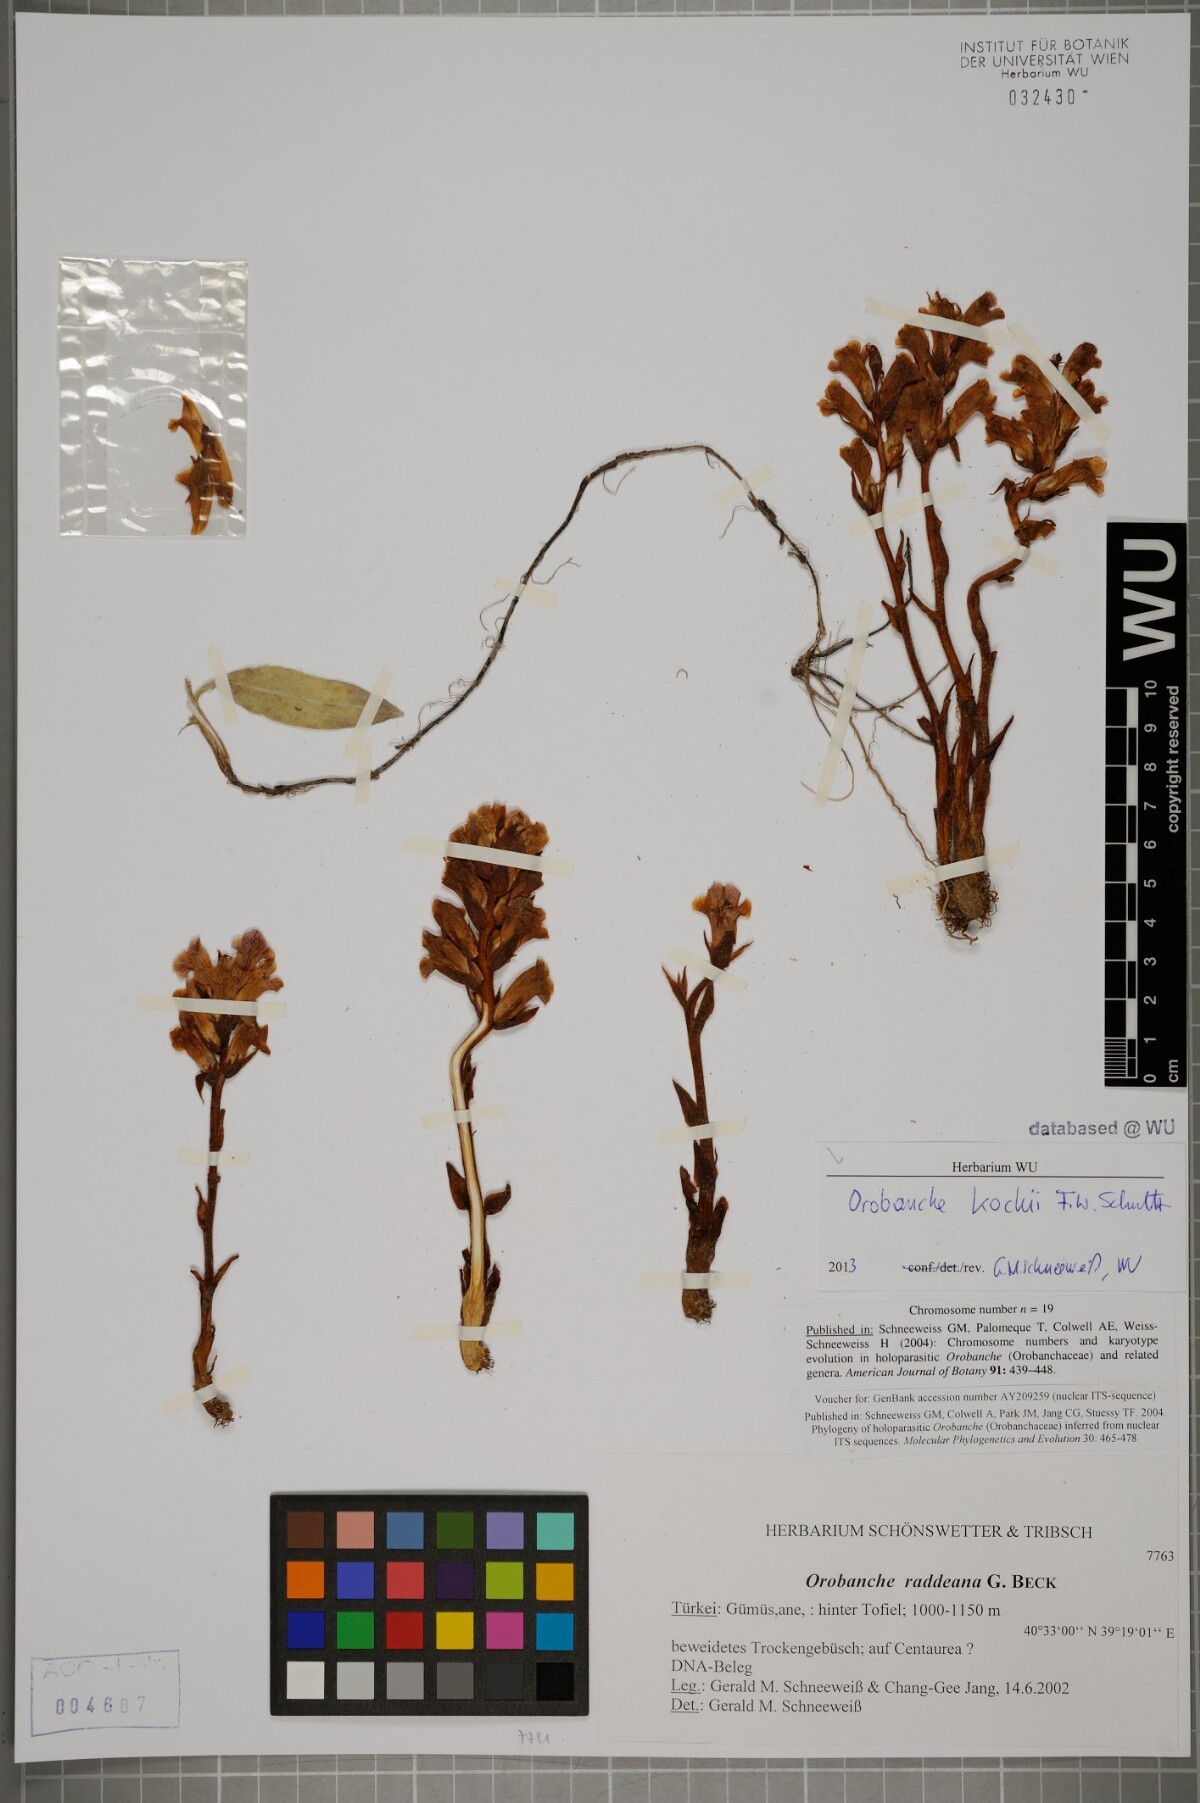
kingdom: Plantae
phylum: Tracheophyta
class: Magnoliopsida
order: Lamiales
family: Orobanchaceae
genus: Orobanche
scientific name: Orobanche centaurina
